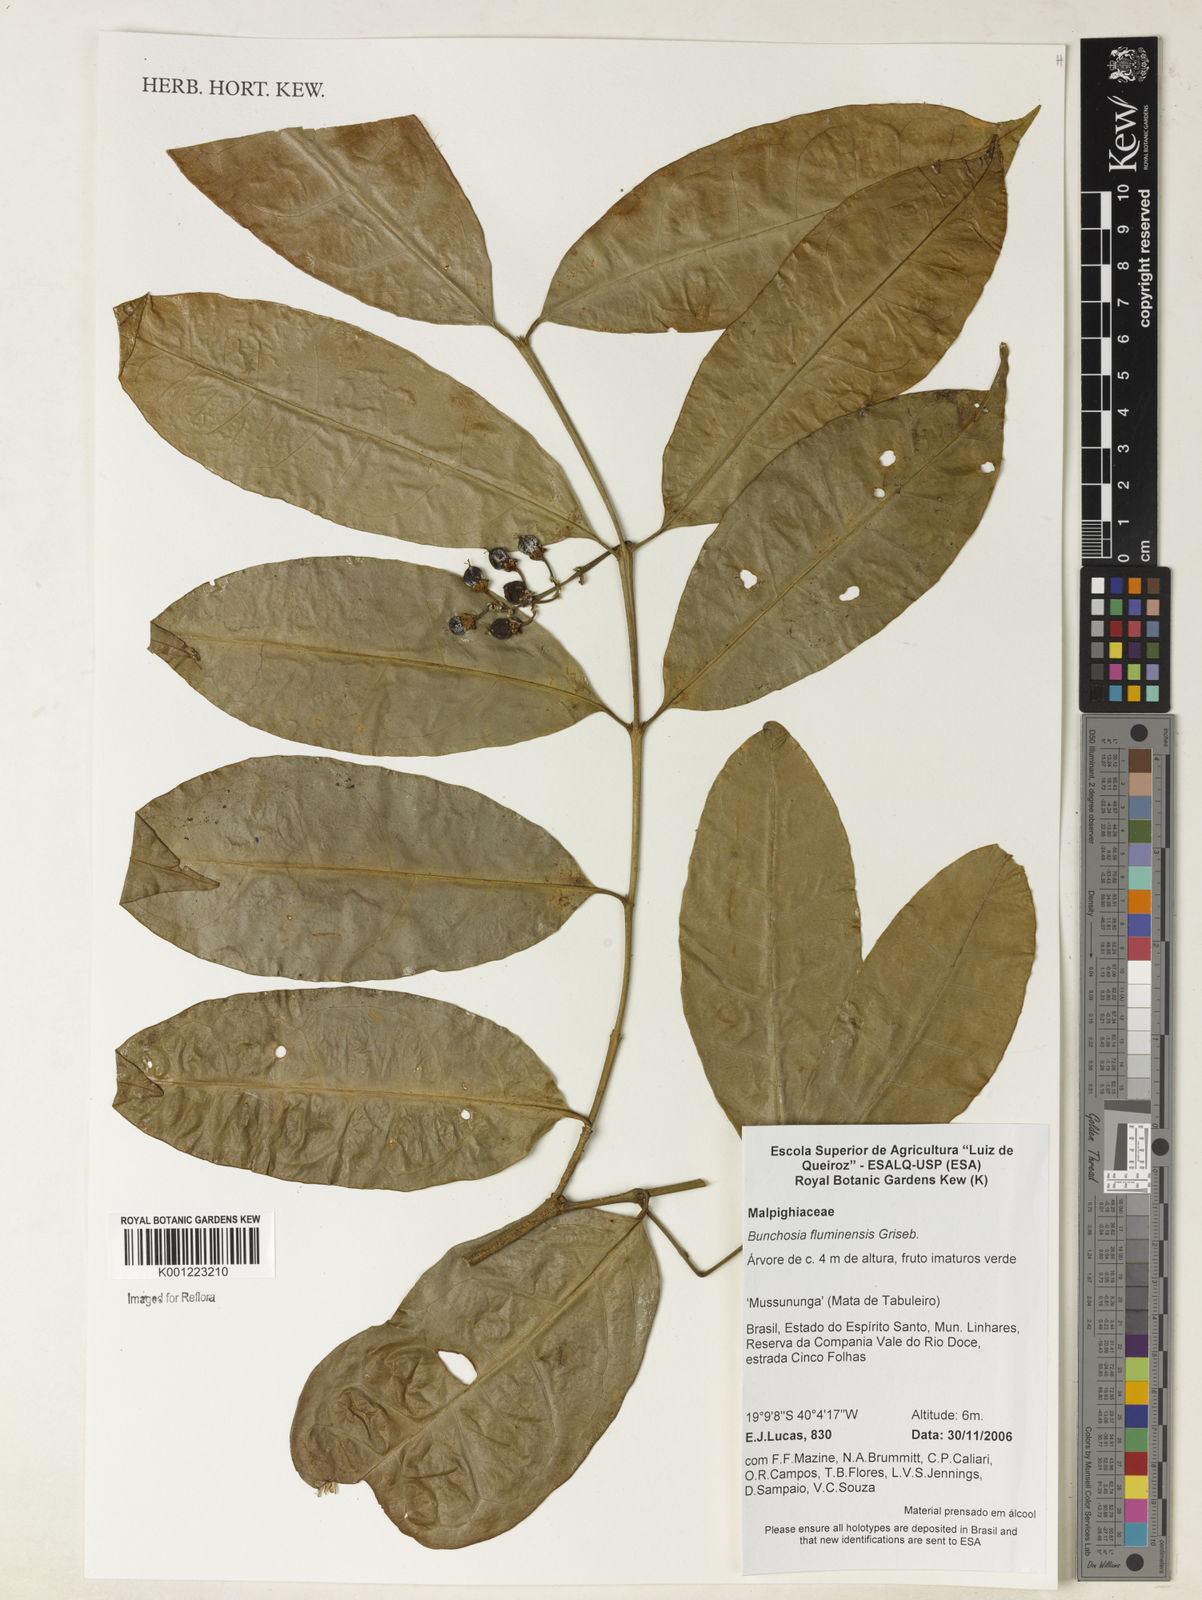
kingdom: Plantae
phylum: Tracheophyta
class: Magnoliopsida
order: Malpighiales
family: Malpighiaceae
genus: Bunchosia
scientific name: Bunchosia fluminensis
